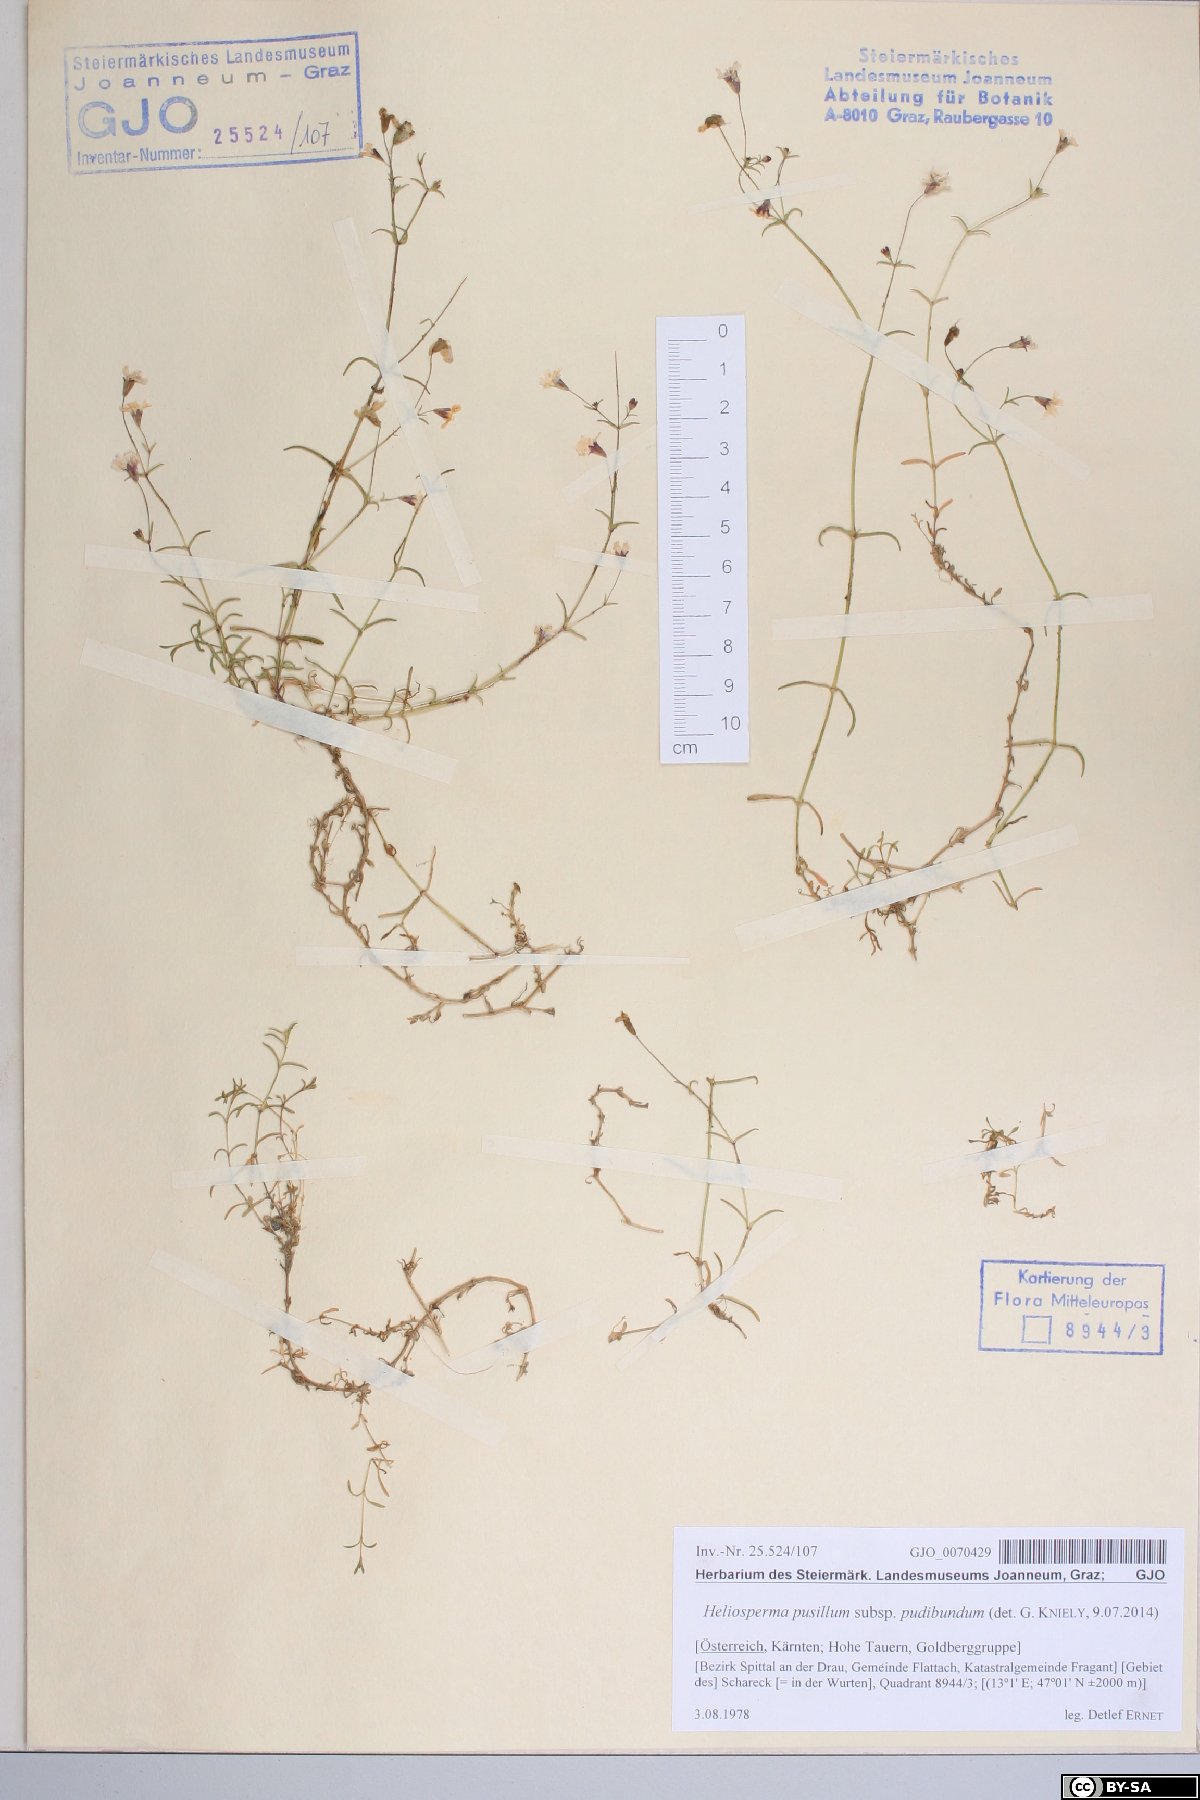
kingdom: Plantae
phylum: Tracheophyta
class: Magnoliopsida
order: Caryophyllales
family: Caryophyllaceae
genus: Heliosperma
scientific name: Heliosperma pudibundum
